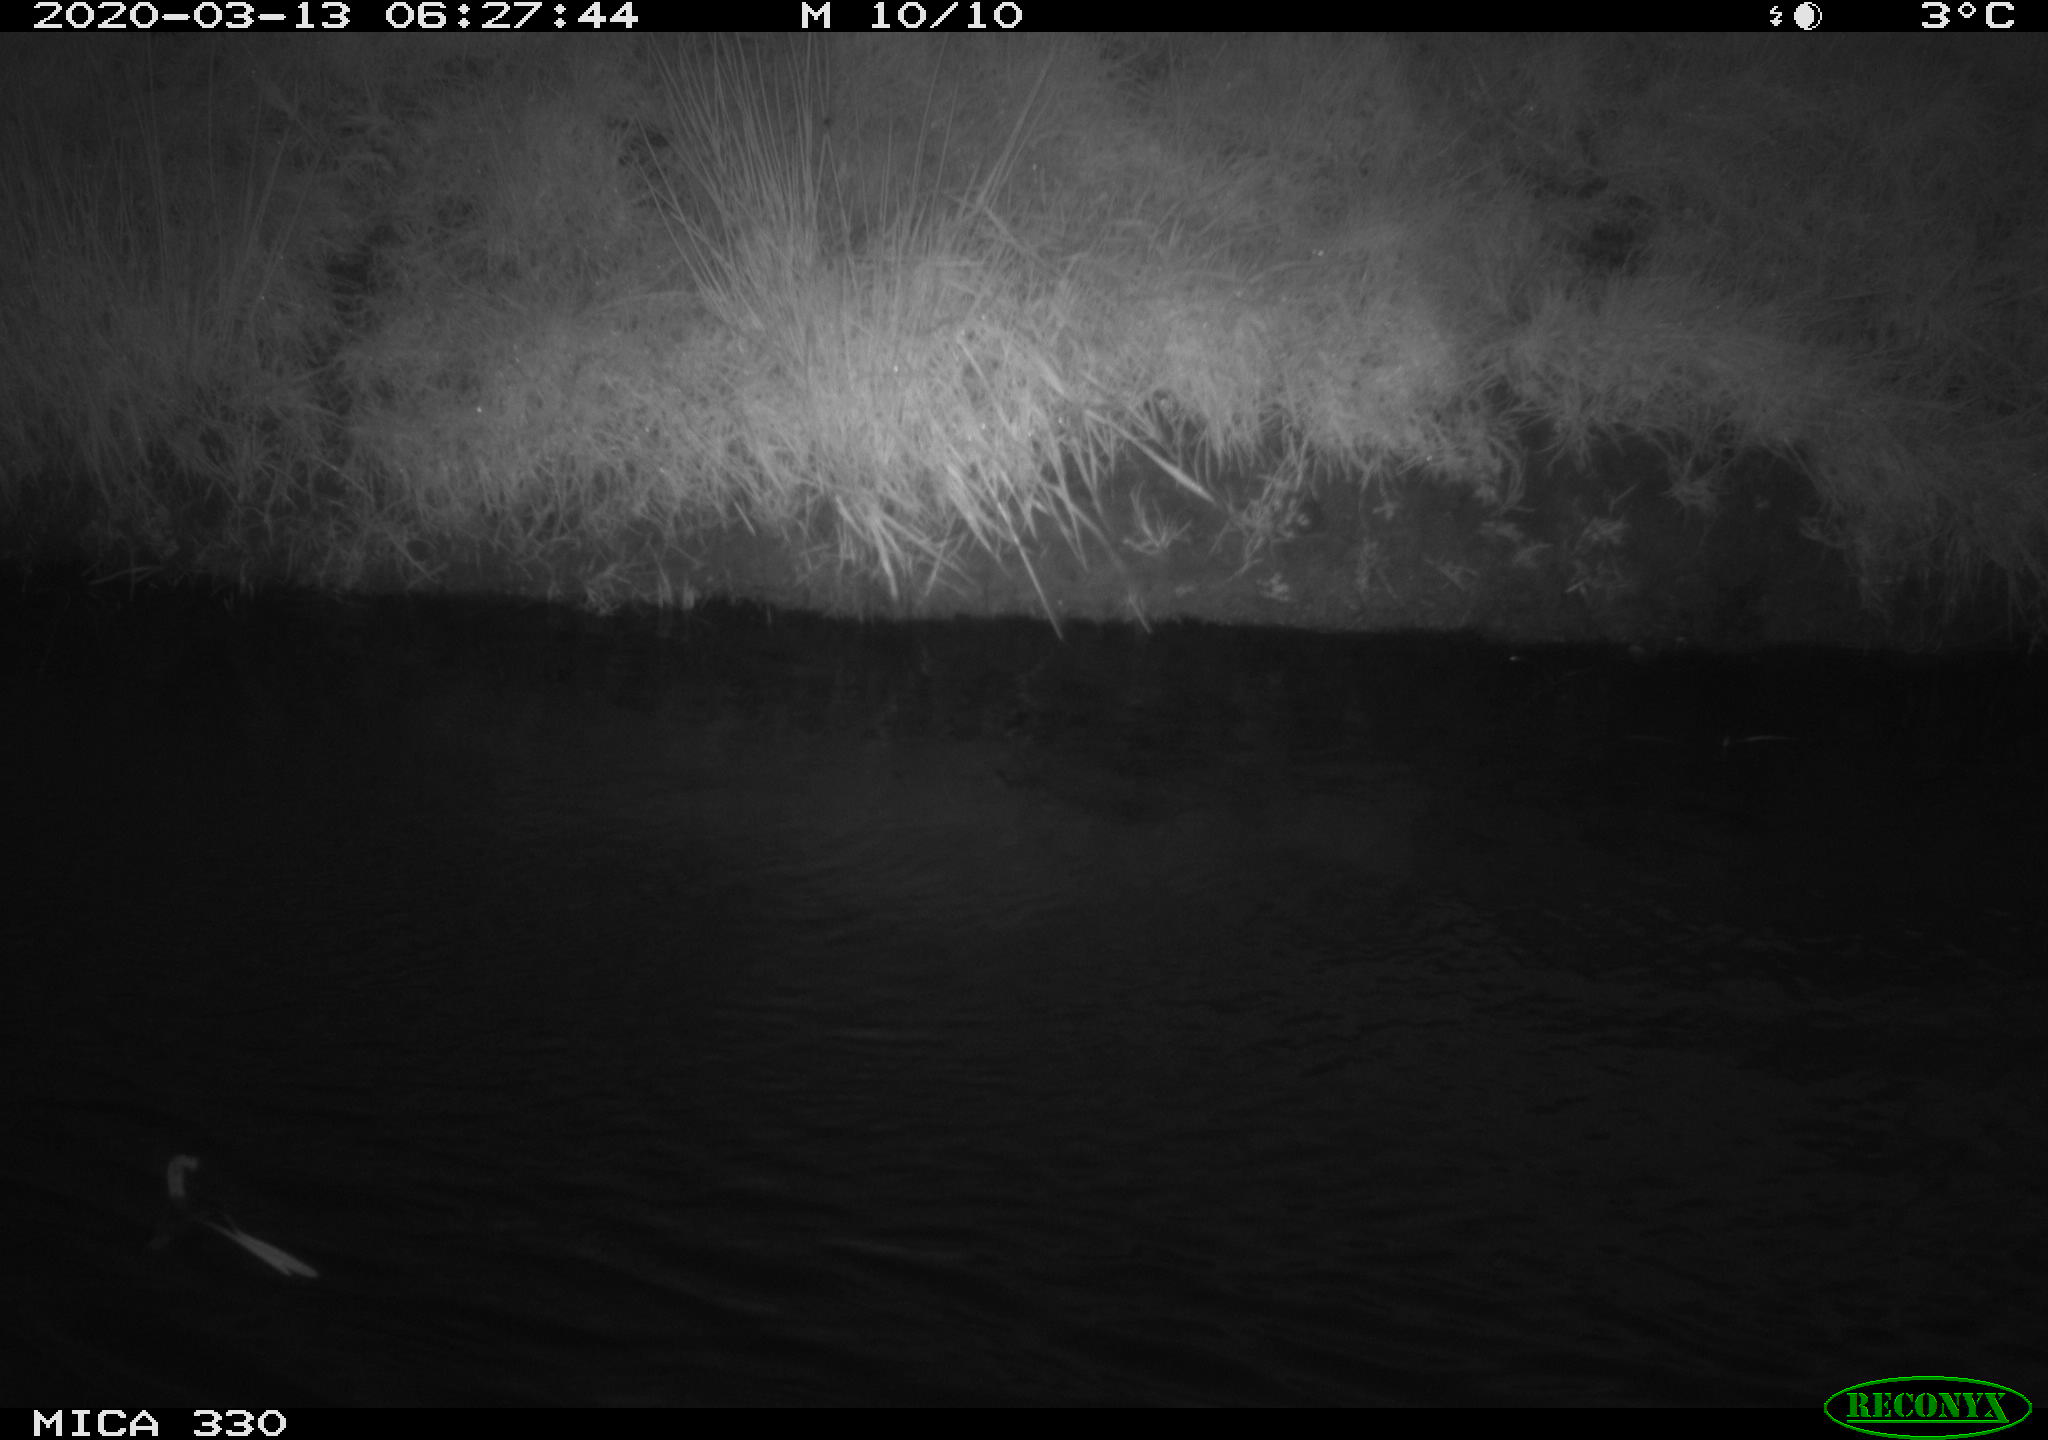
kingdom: Animalia
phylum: Chordata
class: Aves
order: Anseriformes
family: Anatidae
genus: Anas
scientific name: Anas platyrhynchos
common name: Mallard
